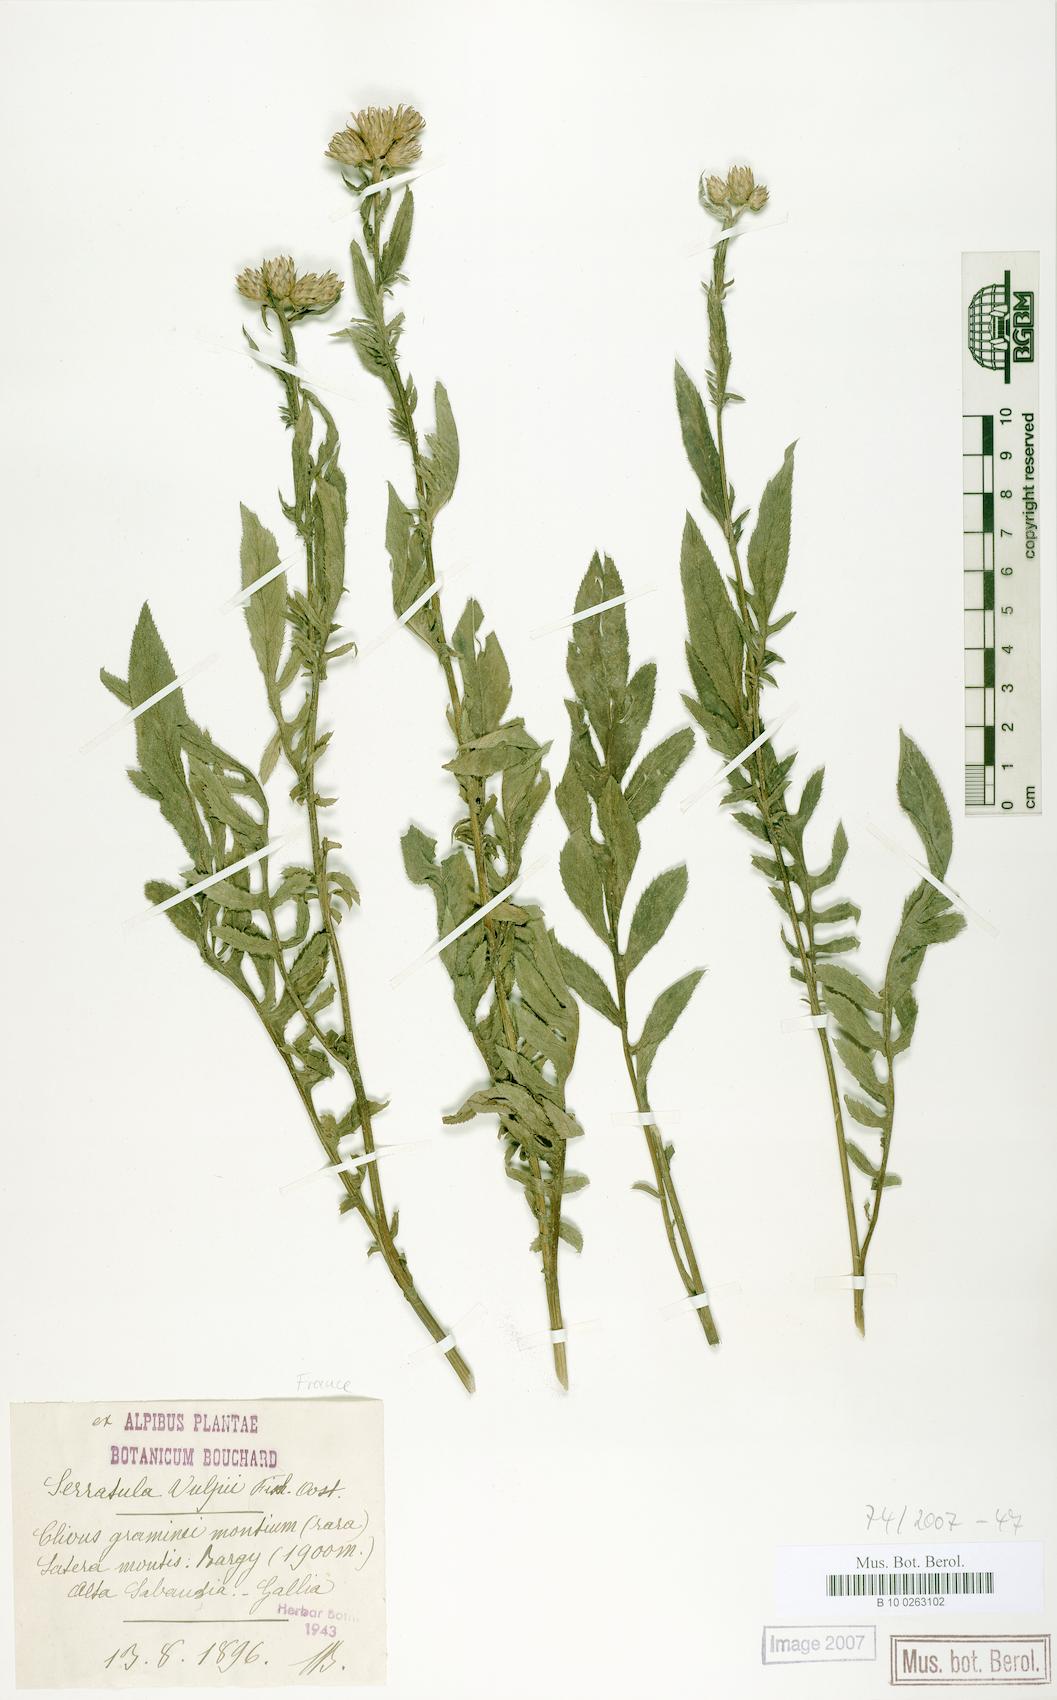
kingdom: Plantae
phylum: Tracheophyta
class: Magnoliopsida
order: Asterales
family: Asteraceae
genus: Serratula
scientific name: Serratula tinctoria
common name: Saw-wort
